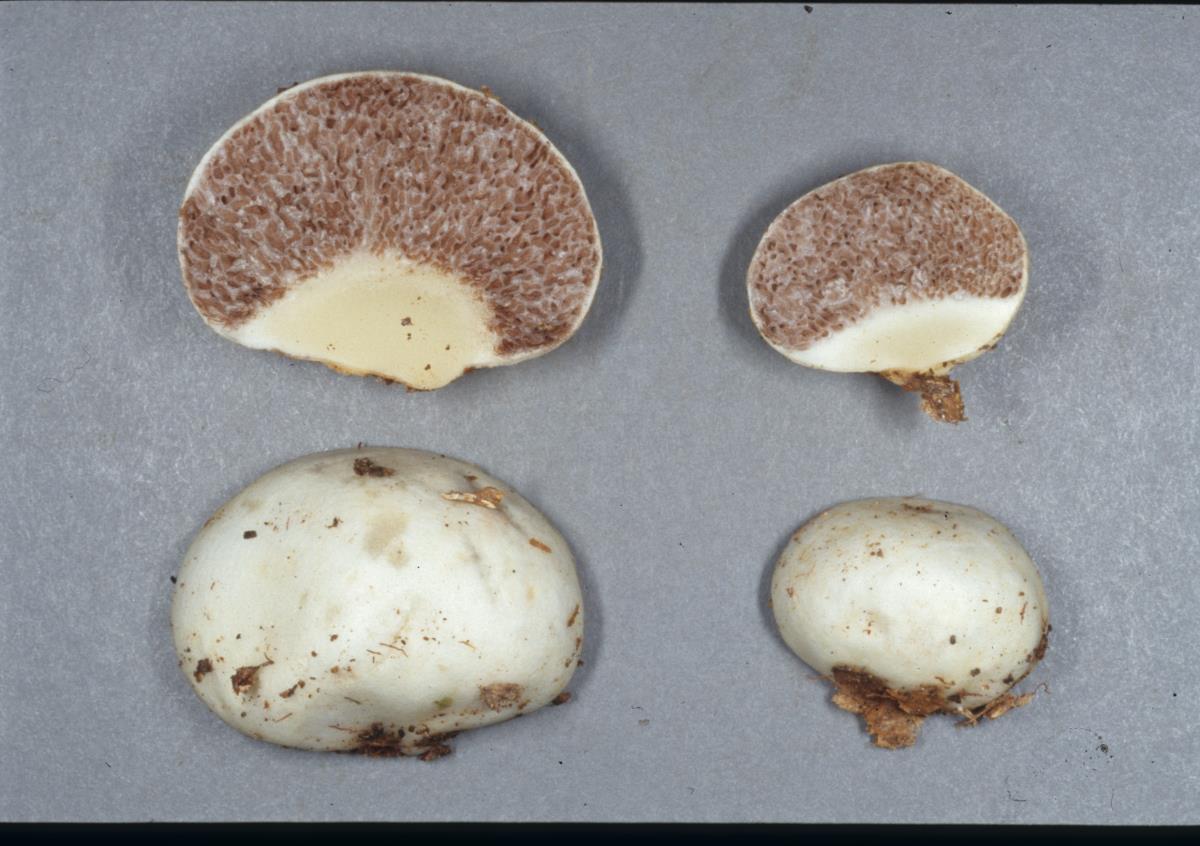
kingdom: Fungi
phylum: Basidiomycota
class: Agaricomycetes
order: Agaricales
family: Cortinariaceae
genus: Protoglossum
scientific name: Protoglossum
